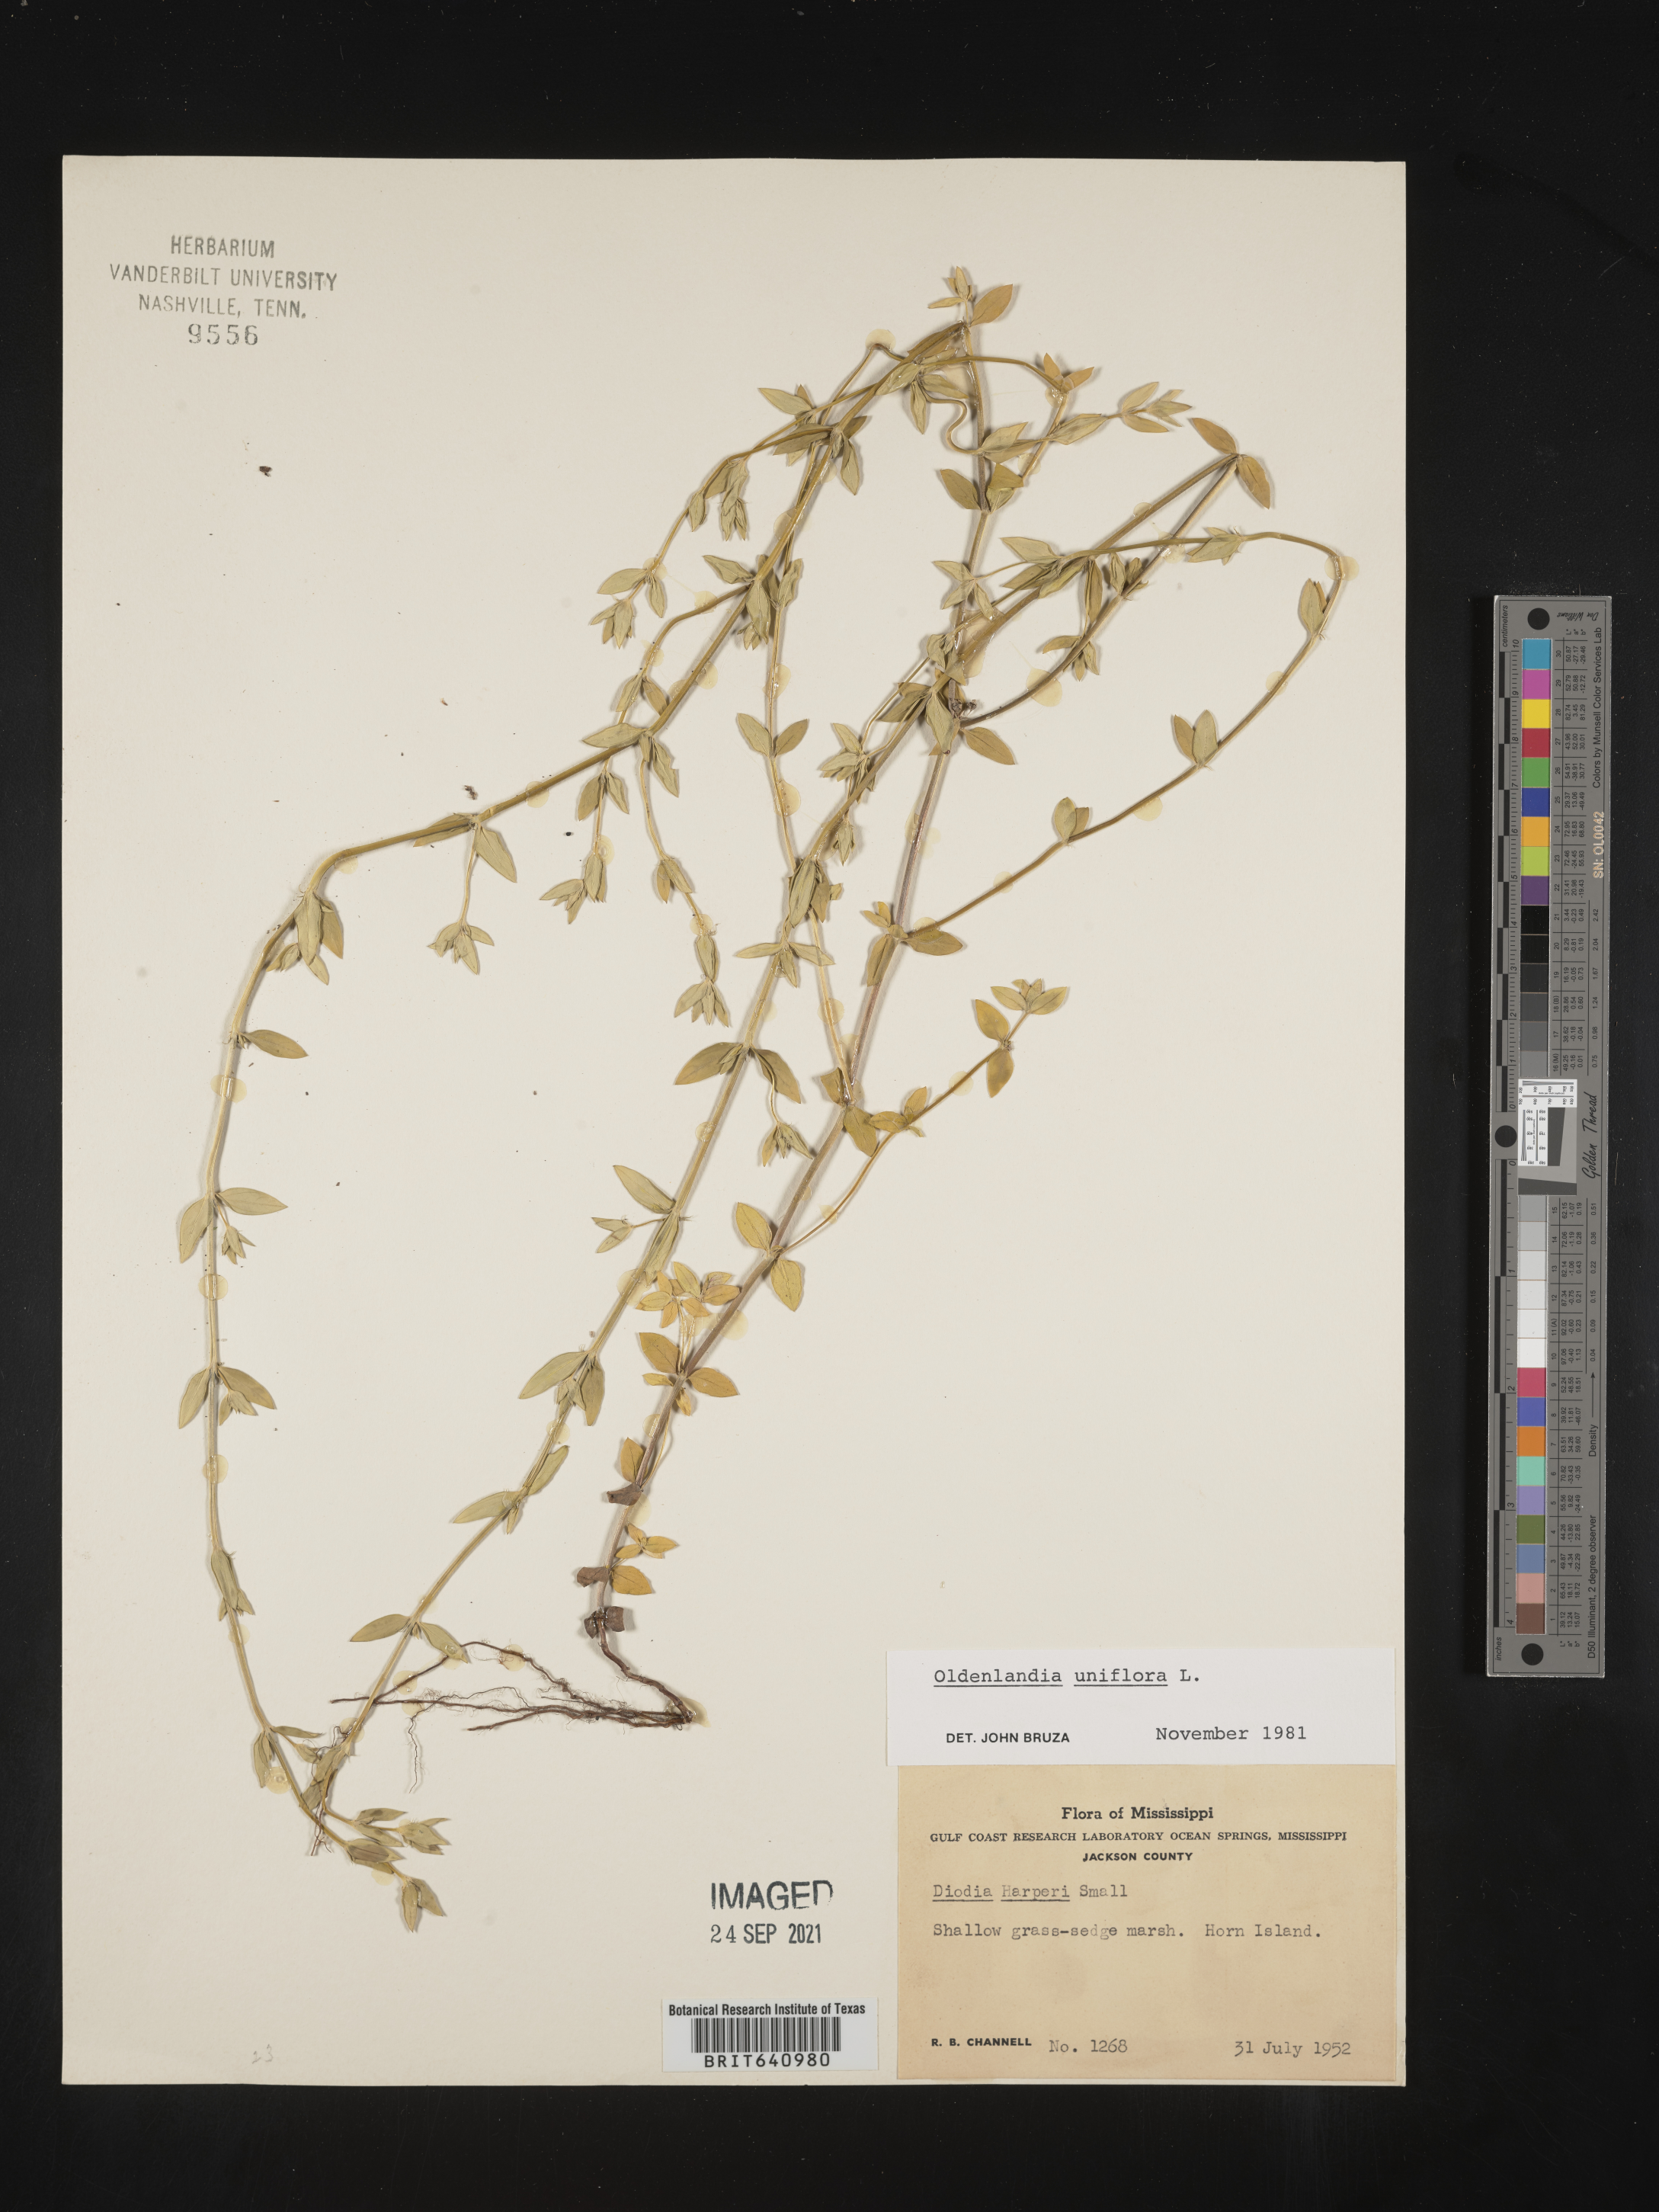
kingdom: Plantae
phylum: Tracheophyta
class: Magnoliopsida
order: Gentianales
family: Rubiaceae
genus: Edrastima
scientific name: Edrastima uniflora
